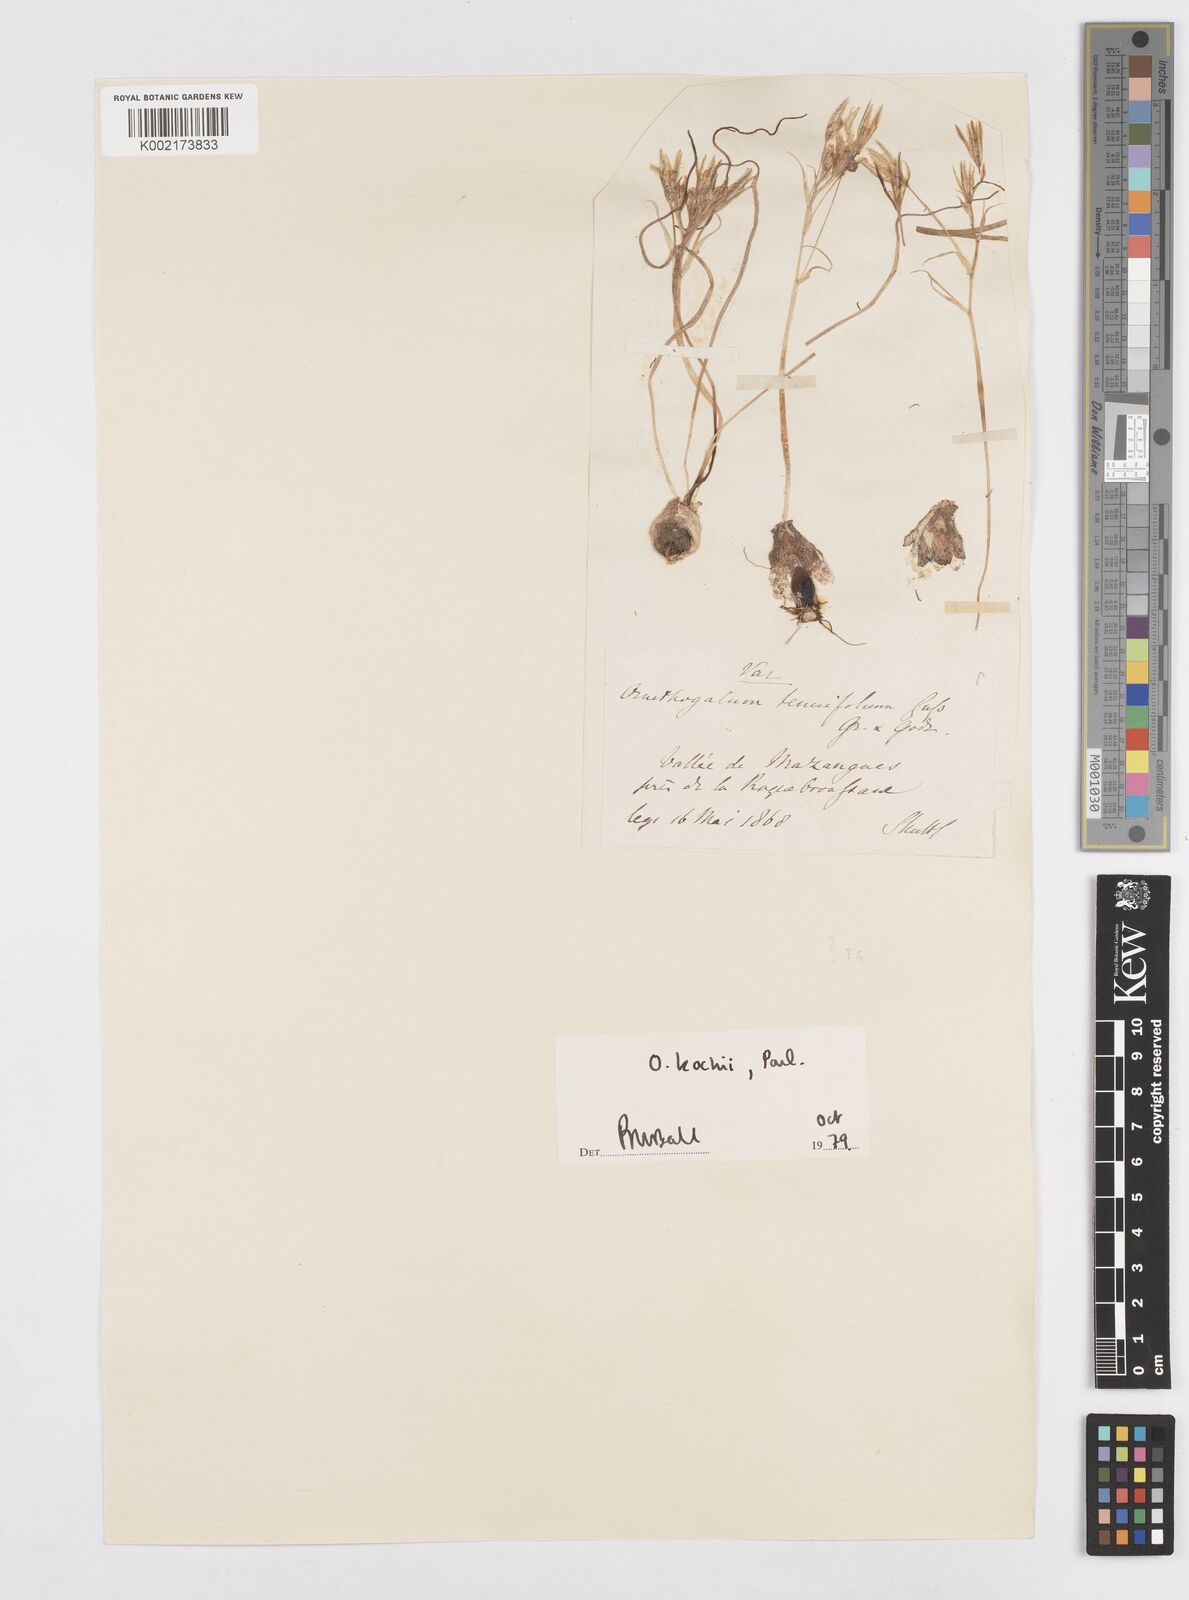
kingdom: Plantae
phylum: Tracheophyta
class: Liliopsida
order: Asparagales
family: Asparagaceae
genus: Ornithogalum
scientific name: Ornithogalum orthophyllum
